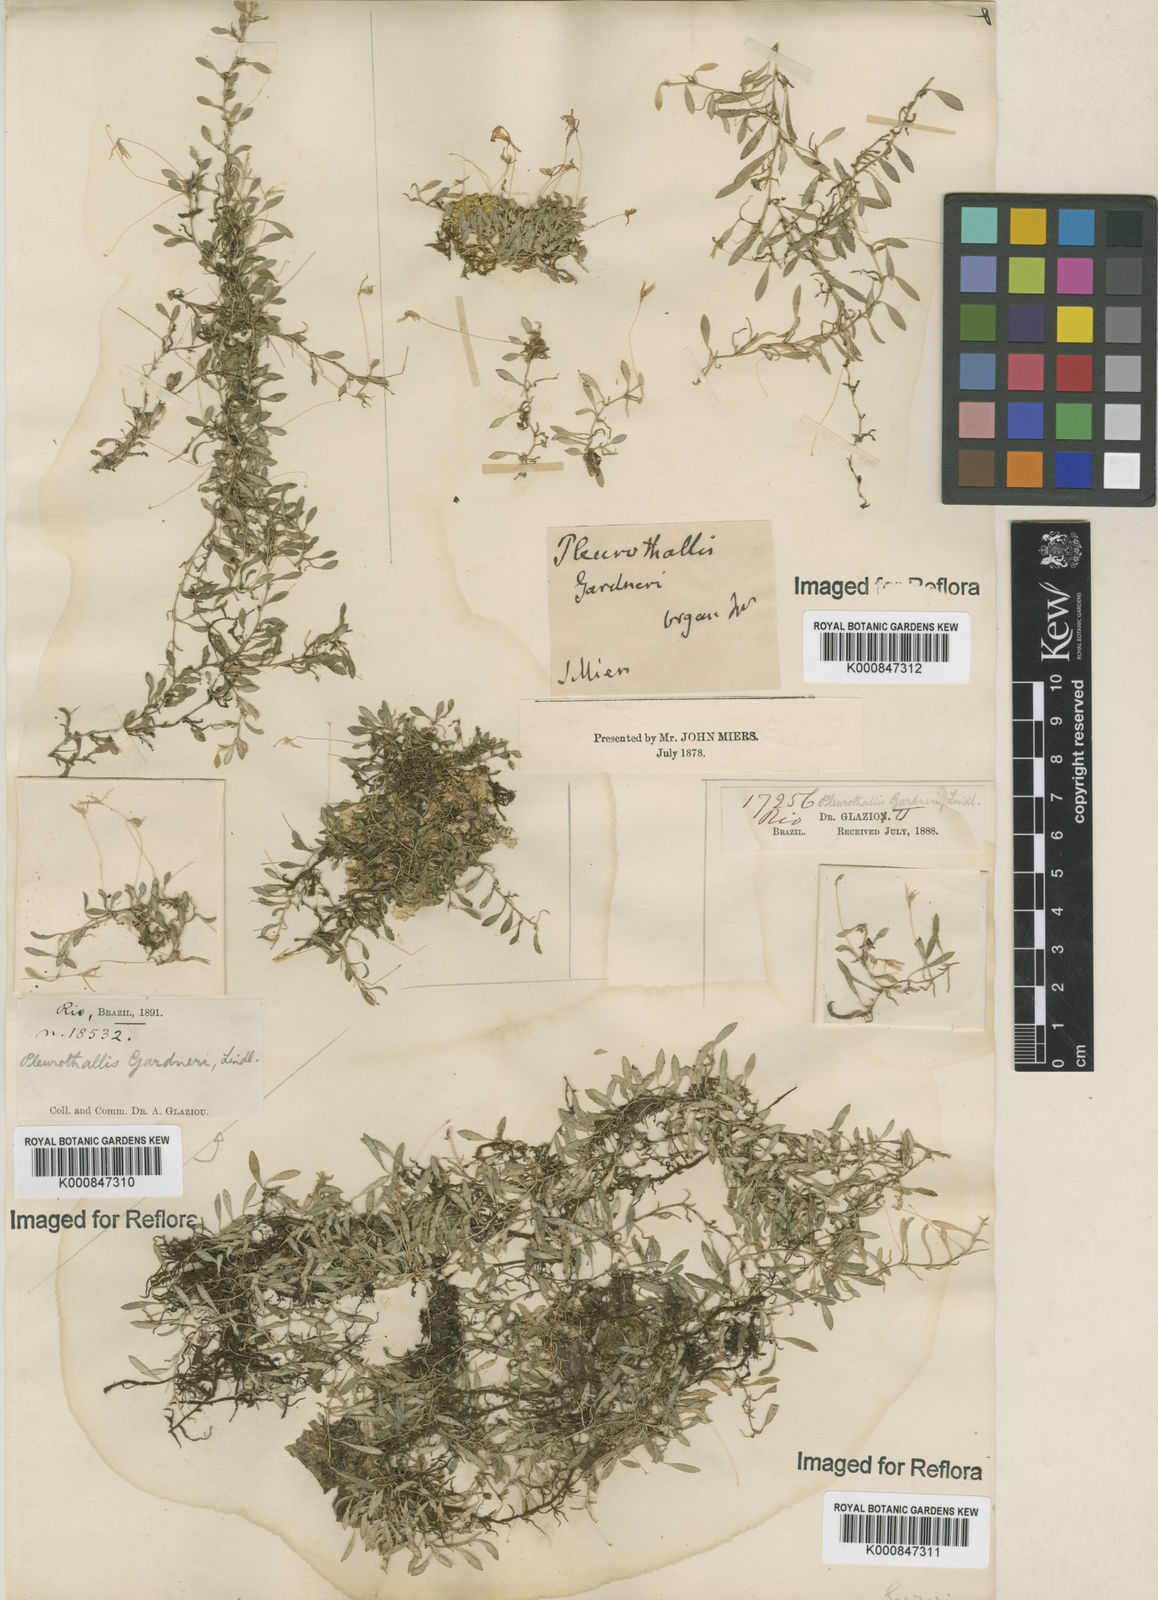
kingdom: Plantae
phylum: Tracheophyta
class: Liliopsida
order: Asparagales
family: Orchidaceae
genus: Barbosella
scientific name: Barbosella gardneri
